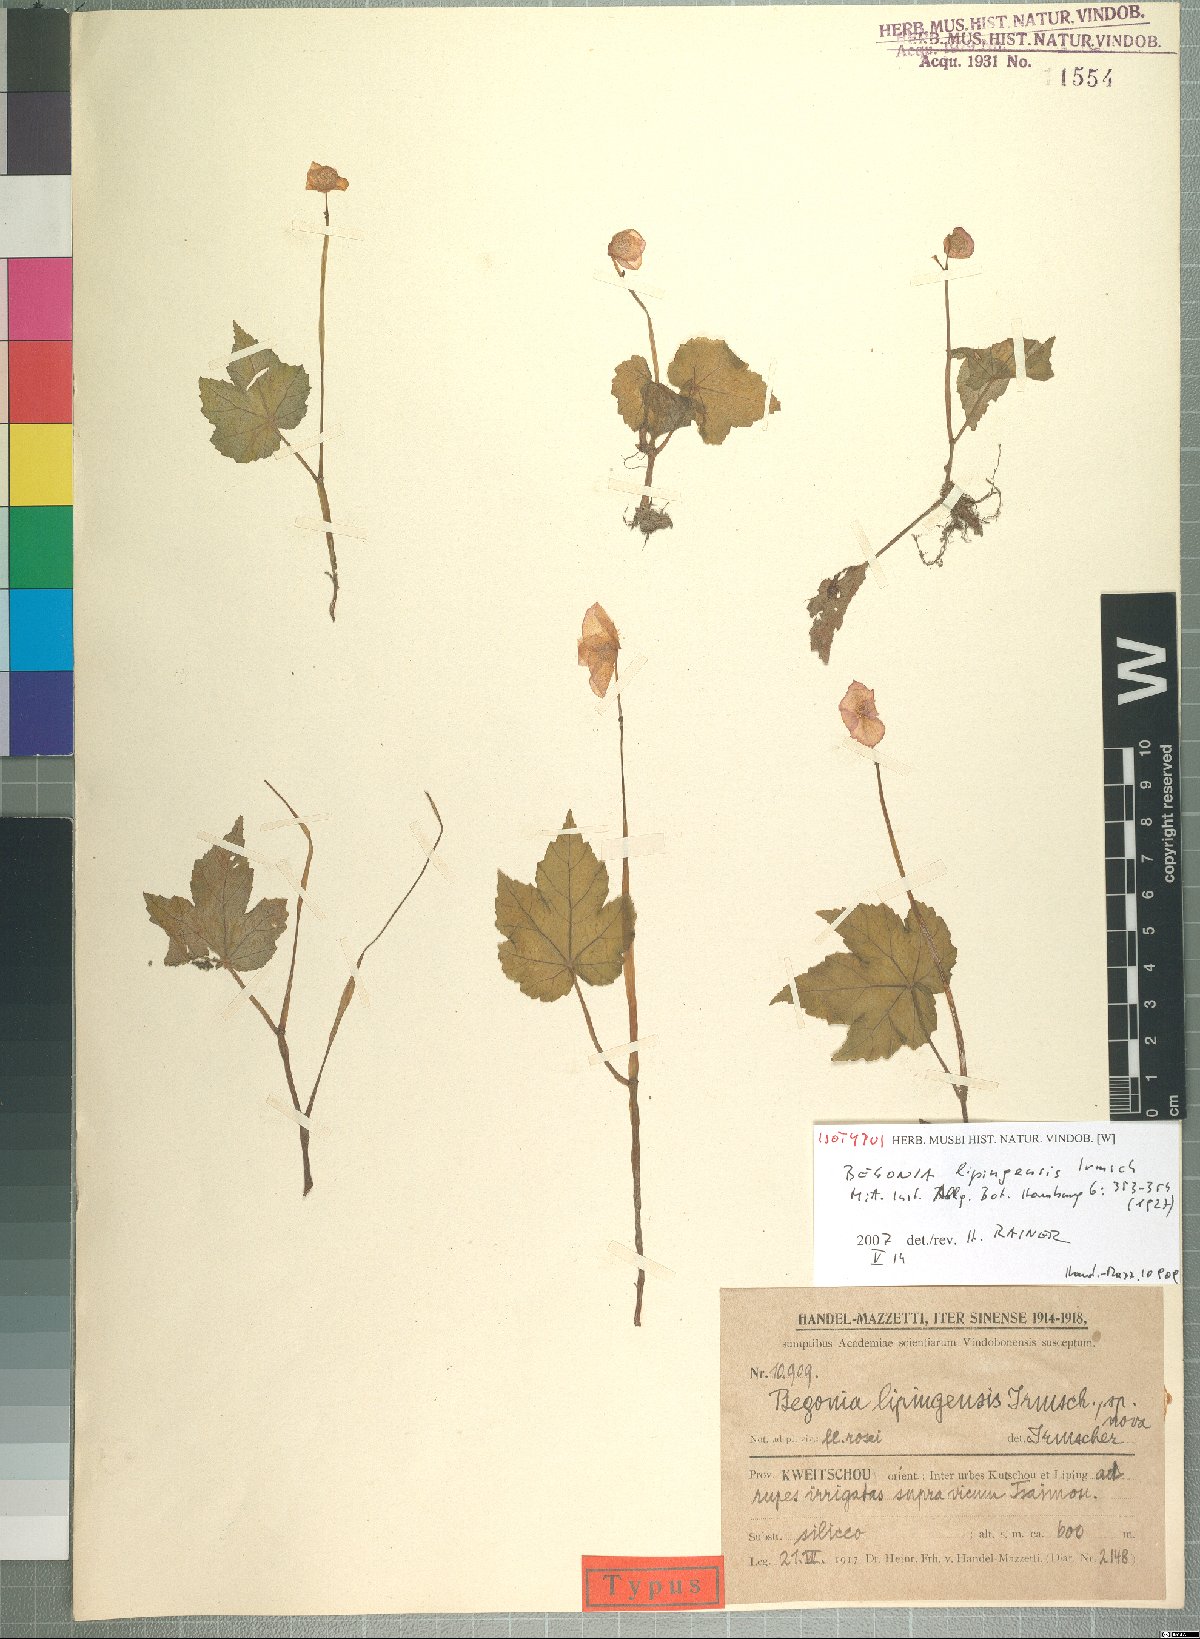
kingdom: Plantae
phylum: Tracheophyta
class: Magnoliopsida
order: Cucurbitales
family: Begoniaceae
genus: Begonia
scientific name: Begonia circumlobata
